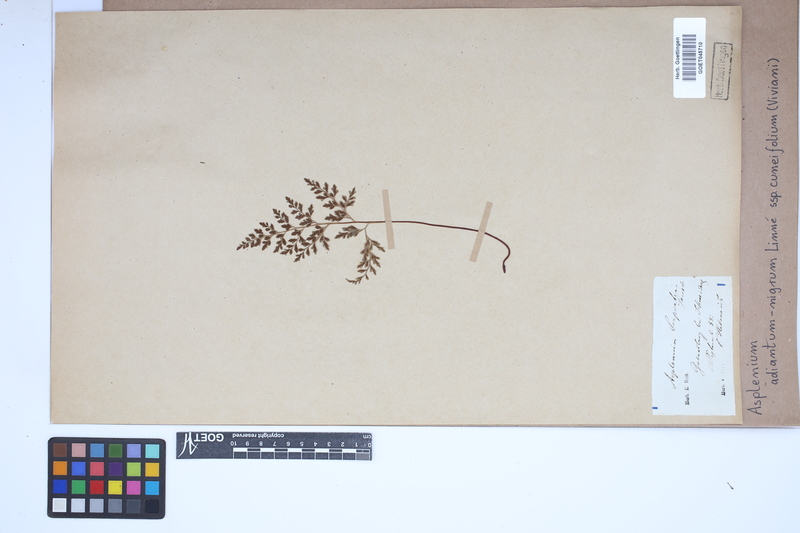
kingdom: Plantae
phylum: Tracheophyta
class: Polypodiopsida
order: Polypodiales
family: Aspleniaceae
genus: Asplenium
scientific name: Asplenium cuneifolium
